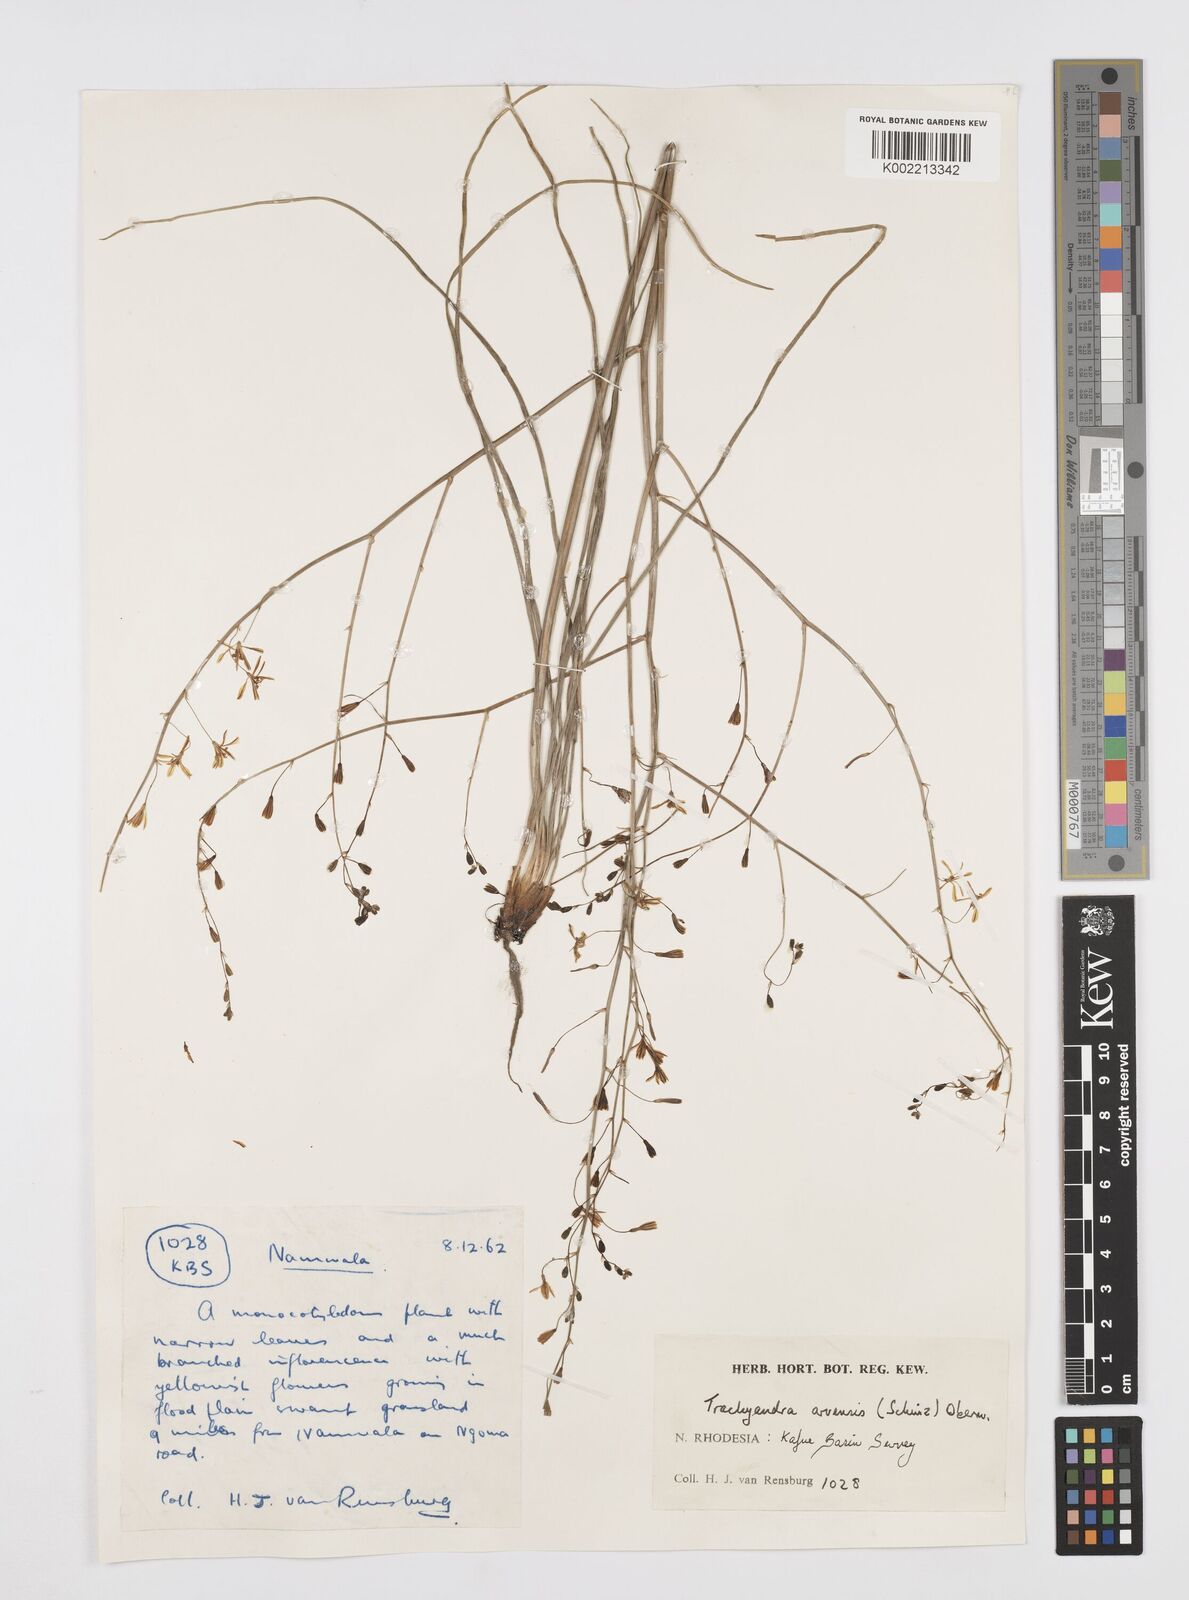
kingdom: Plantae
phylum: Tracheophyta
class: Liliopsida
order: Asparagales
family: Asphodelaceae
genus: Trachyandra
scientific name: Trachyandra arvensis
